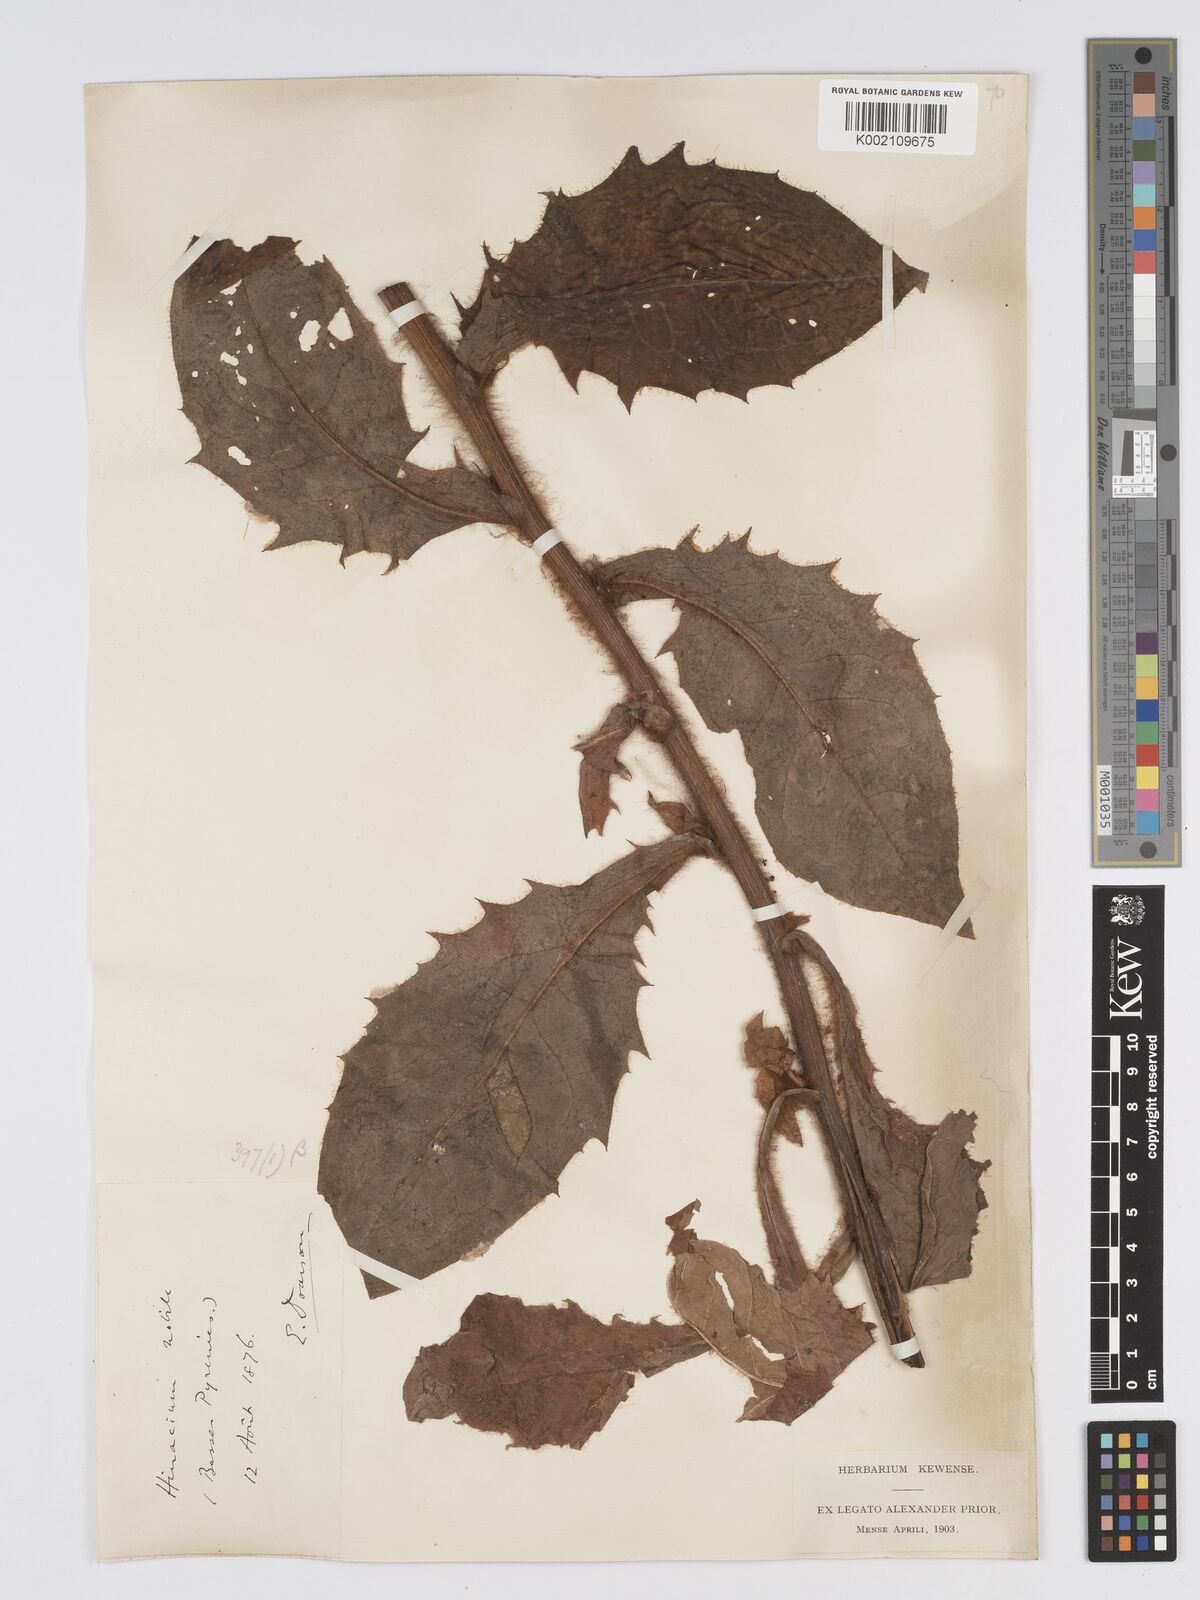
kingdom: Plantae
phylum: Tracheophyta
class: Magnoliopsida
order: Asterales
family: Asteraceae
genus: Hieracium
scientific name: Hieracium nobile
